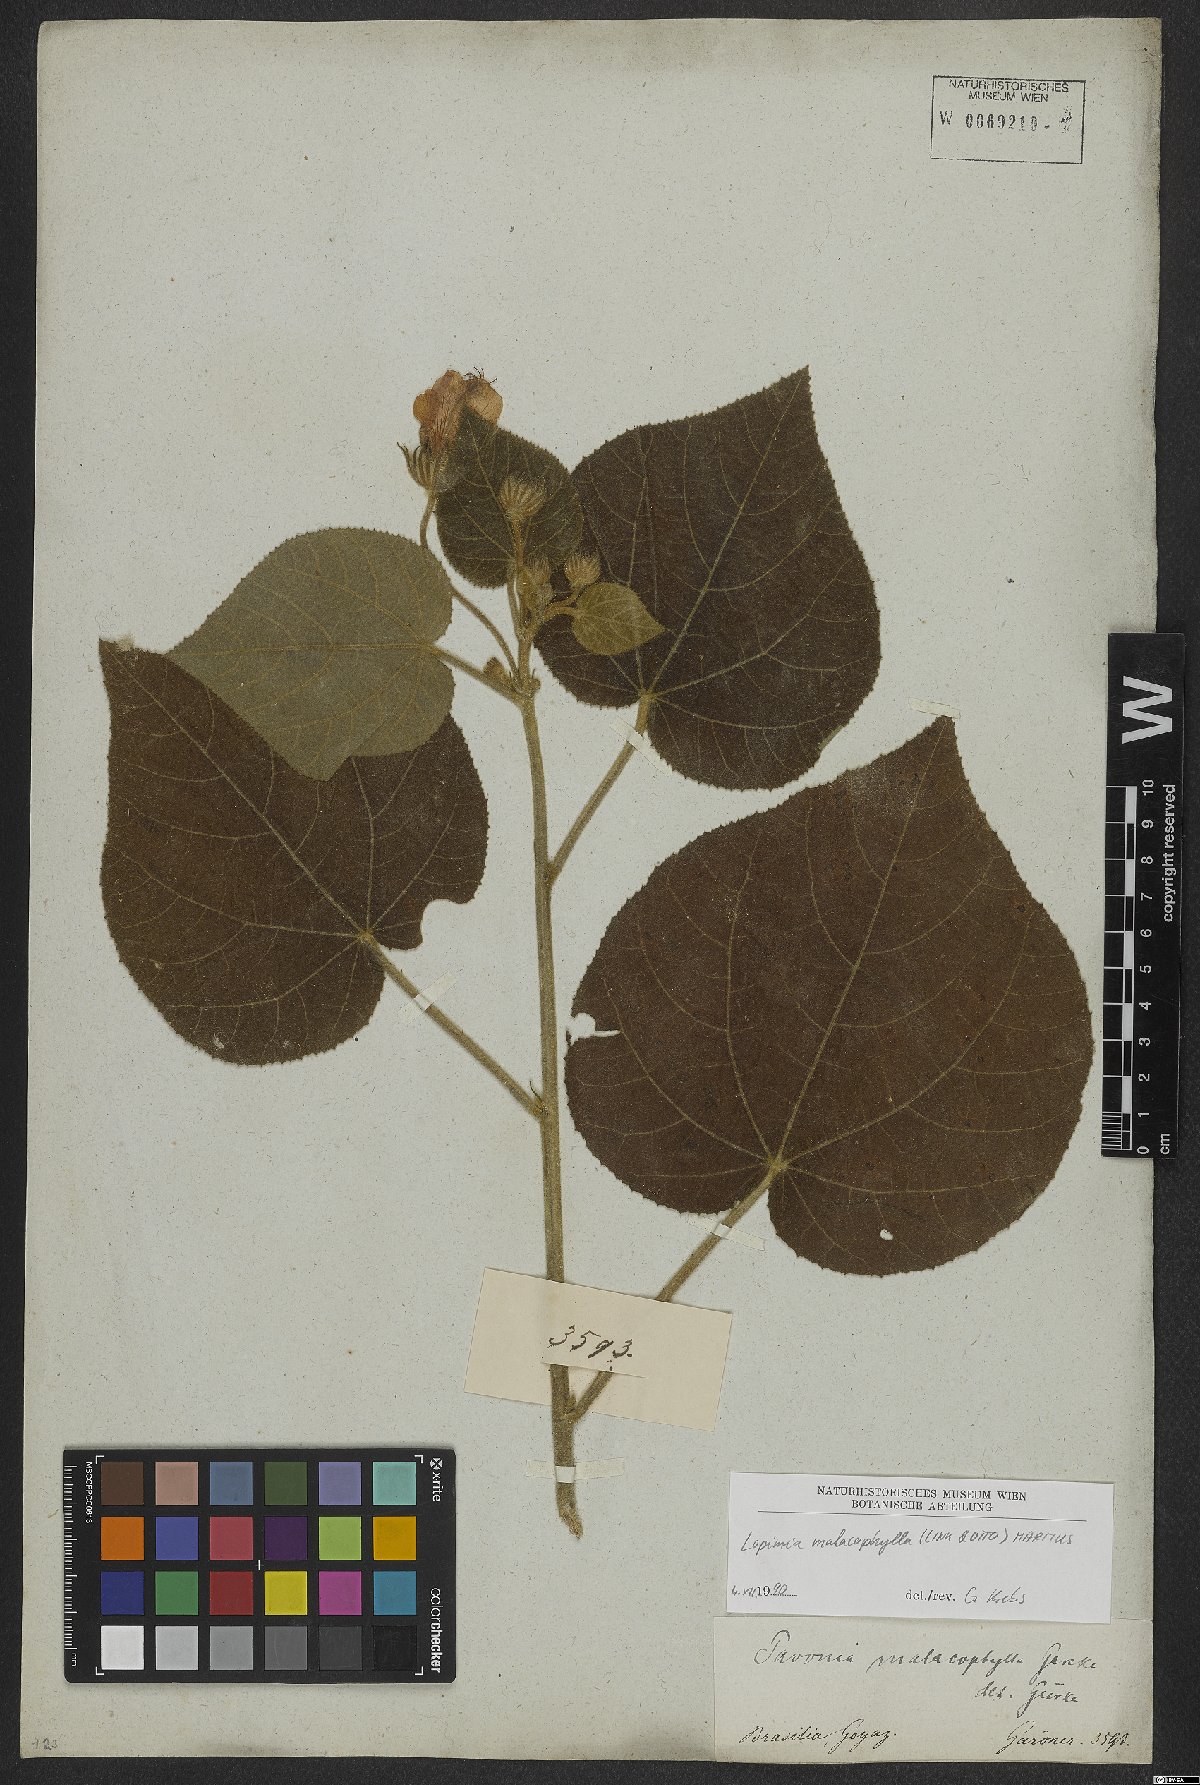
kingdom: Plantae
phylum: Tracheophyta
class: Magnoliopsida
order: Malvales
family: Malvaceae
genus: Pavonia
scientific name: Pavonia malacophylla
